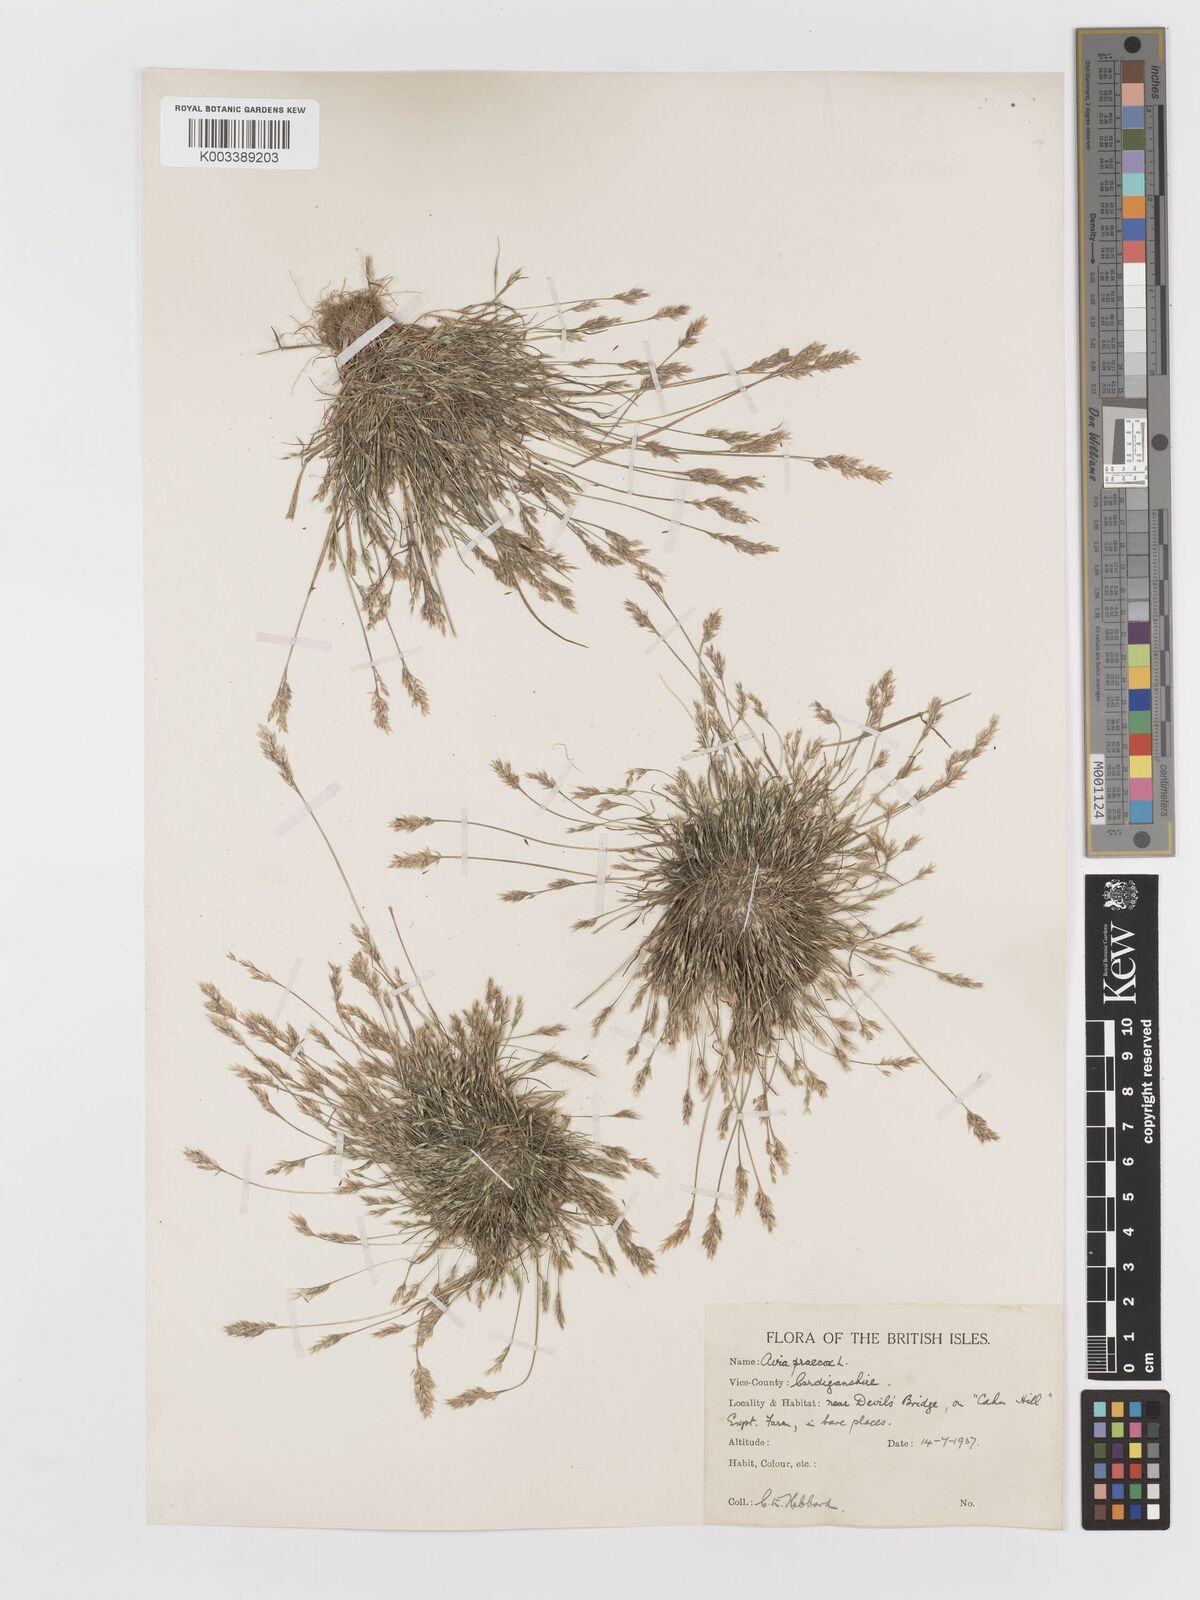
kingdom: Plantae
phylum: Tracheophyta
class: Liliopsida
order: Poales
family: Poaceae
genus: Aira
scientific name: Aira praecox
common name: Early hair-grass
